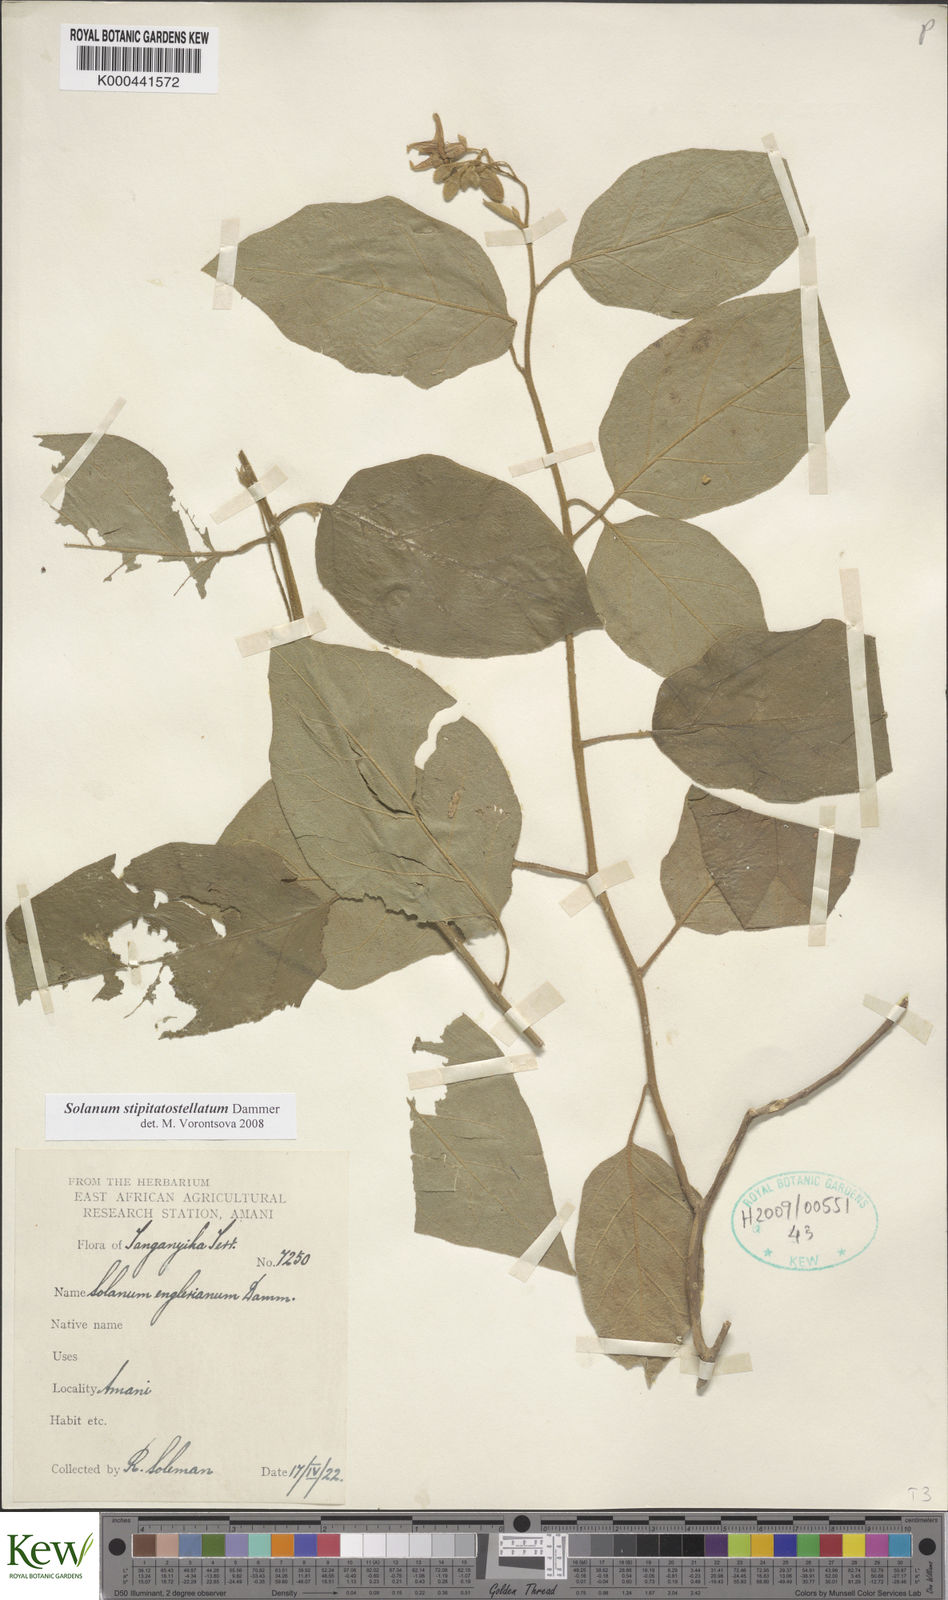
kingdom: Plantae
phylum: Tracheophyta
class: Magnoliopsida
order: Solanales
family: Solanaceae
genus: Solanum
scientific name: Solanum stipitatostellatum
